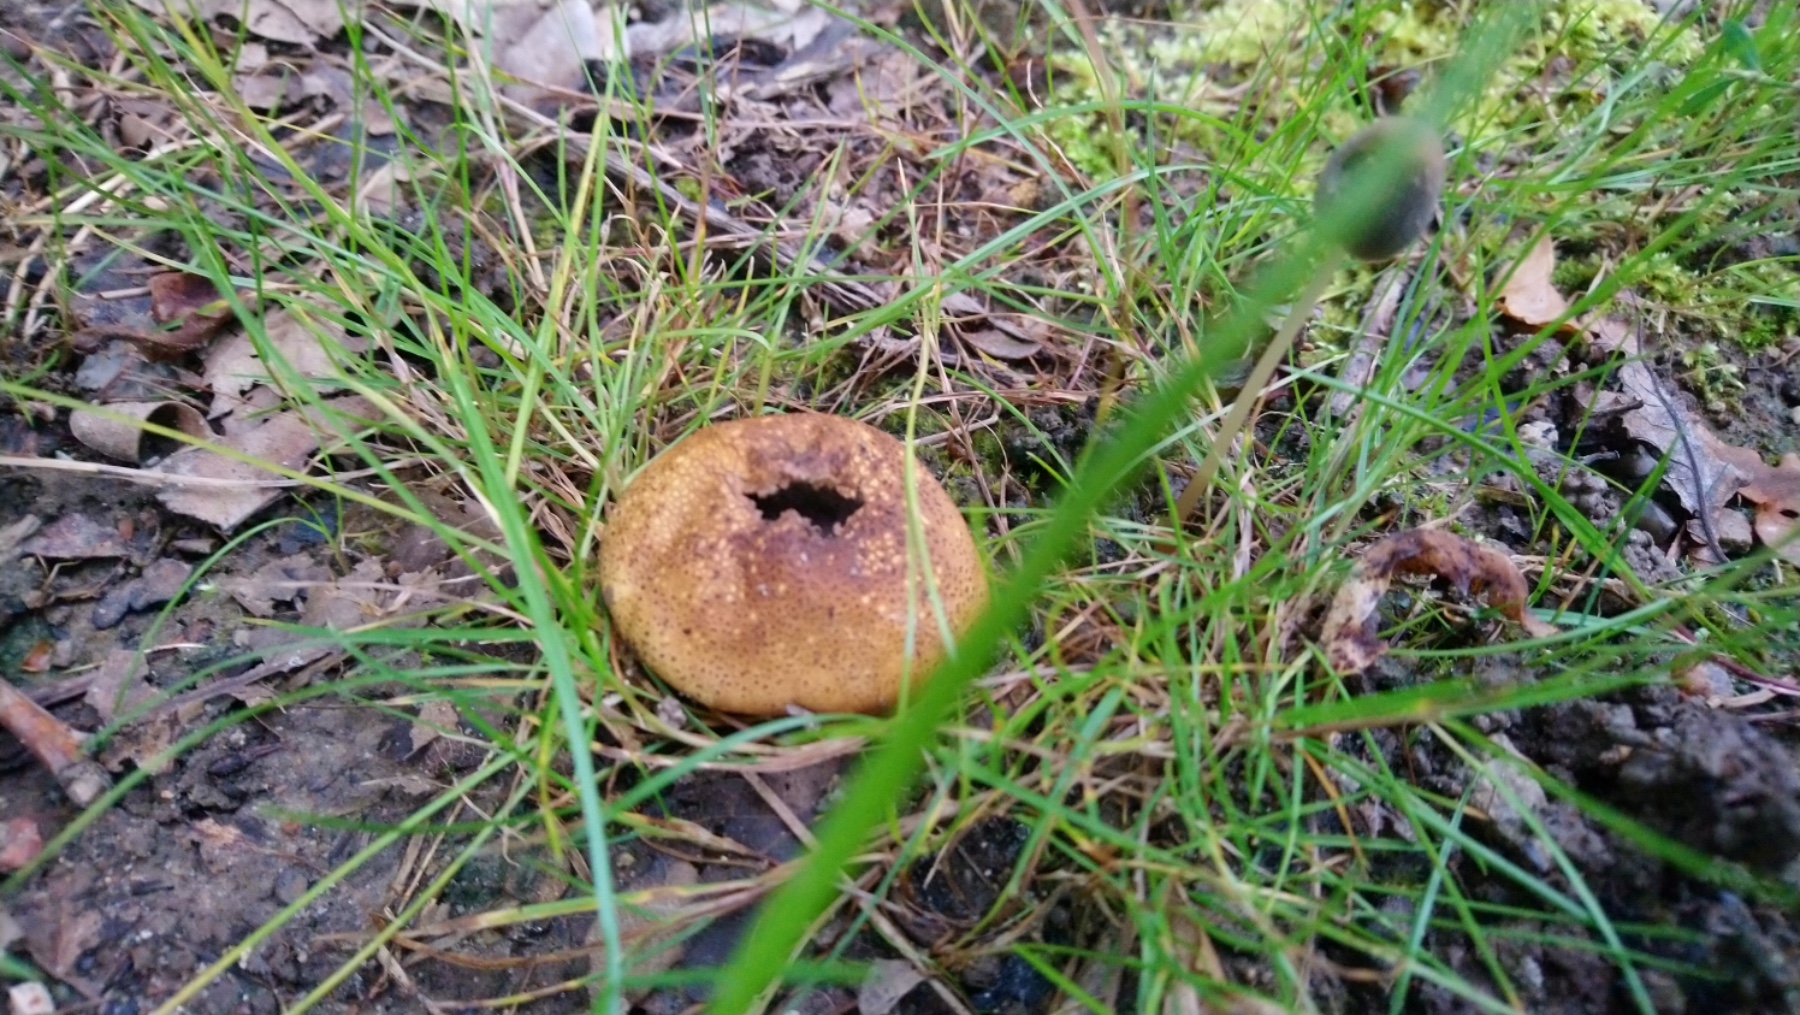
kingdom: Fungi
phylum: Basidiomycota
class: Agaricomycetes
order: Boletales
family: Sclerodermataceae
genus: Scleroderma
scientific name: Scleroderma
